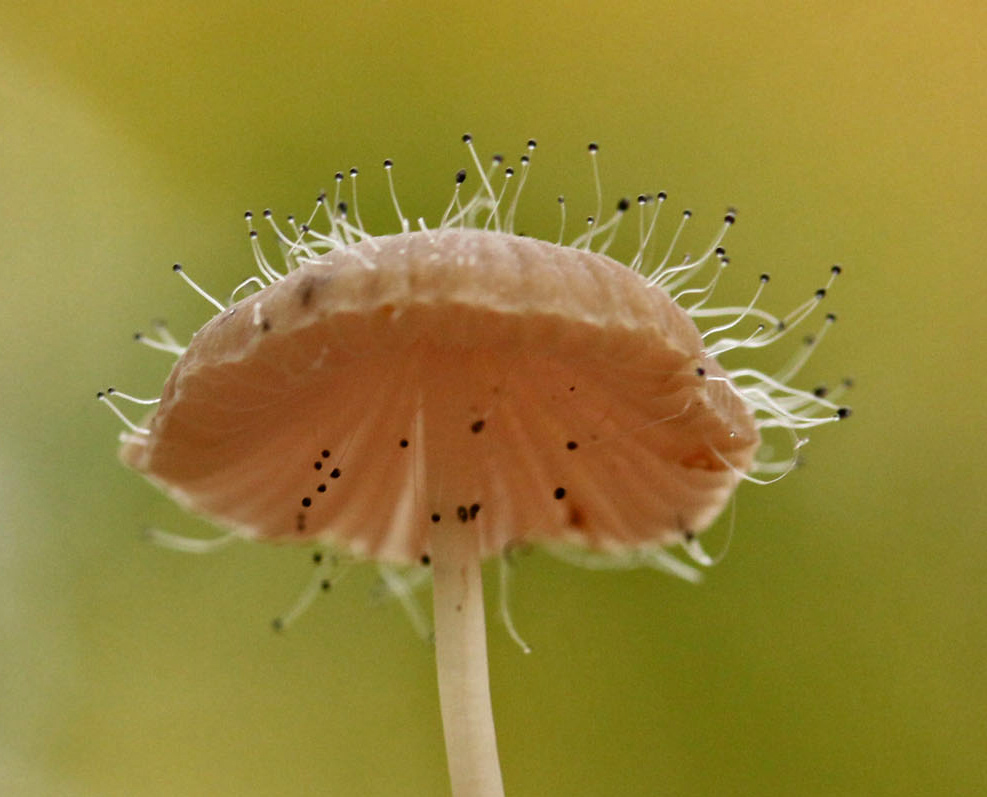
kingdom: Fungi
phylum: Mucoromycota
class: Mucoromycetes
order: Mucorales
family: Phycomycetaceae
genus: Spinellus
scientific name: Spinellus fusiger
